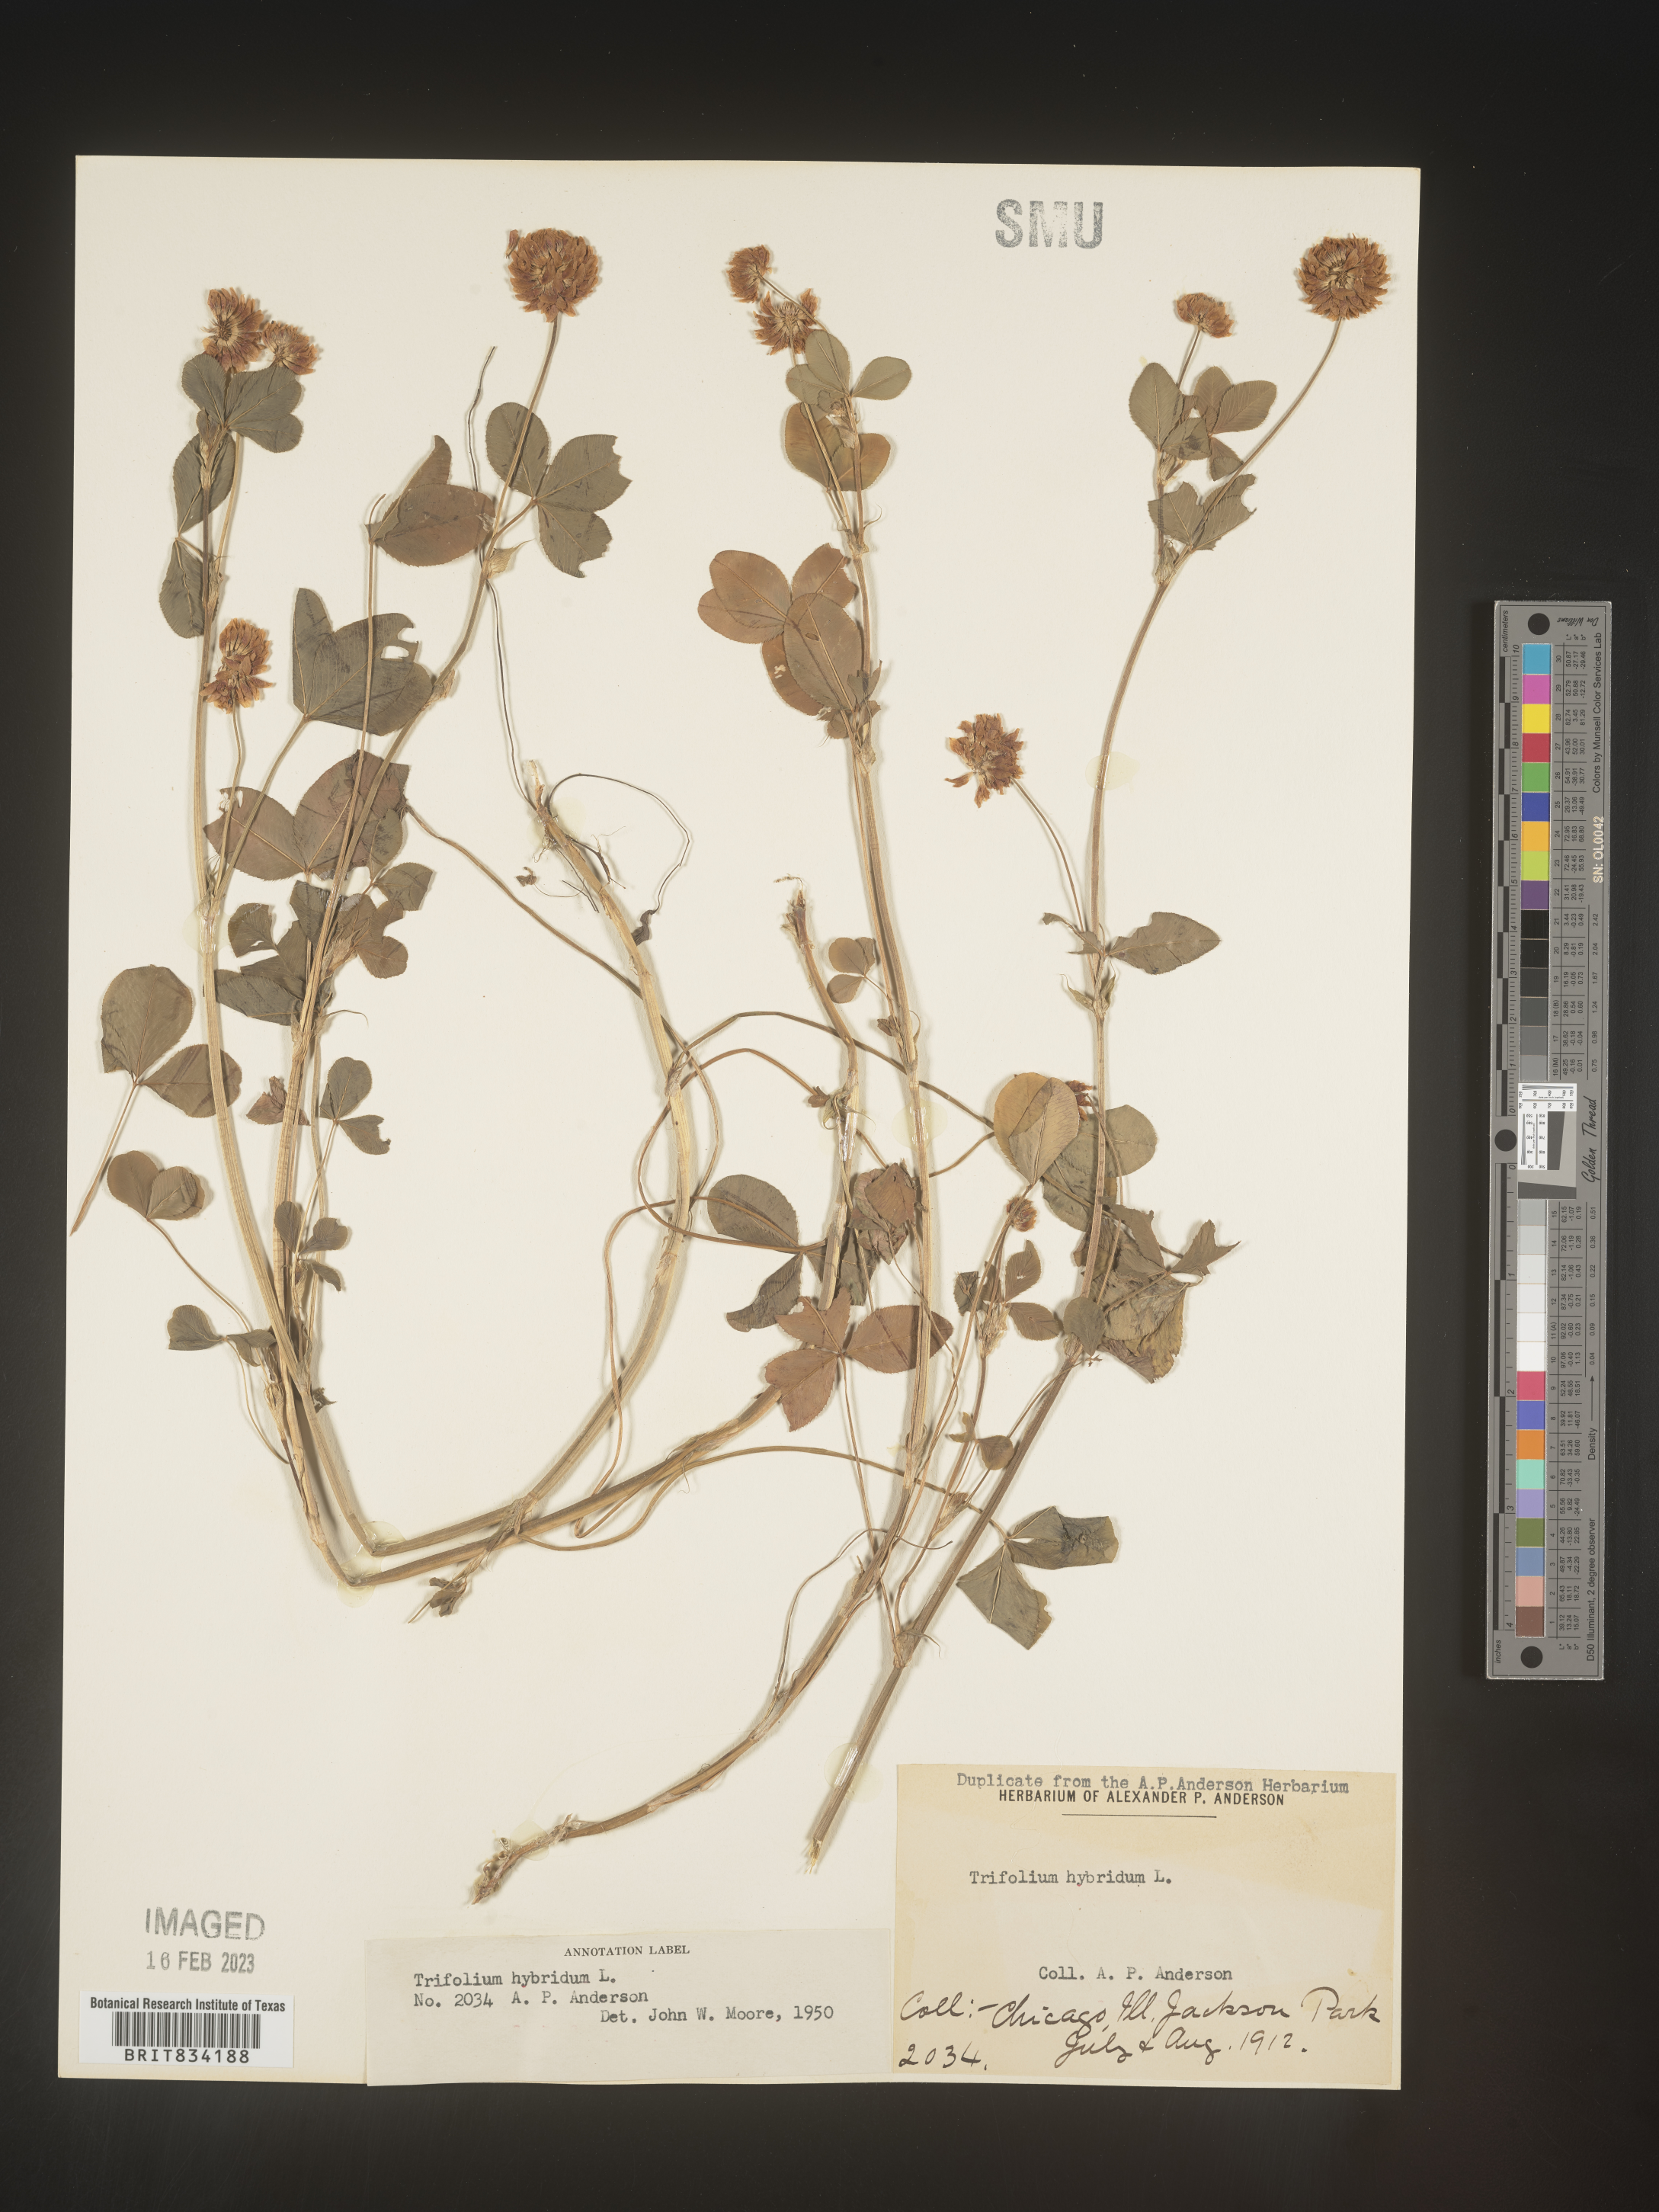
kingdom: Plantae
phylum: Tracheophyta
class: Magnoliopsida
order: Fabales
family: Fabaceae
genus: Trifolium
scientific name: Trifolium hybridum
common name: Alsike clover
